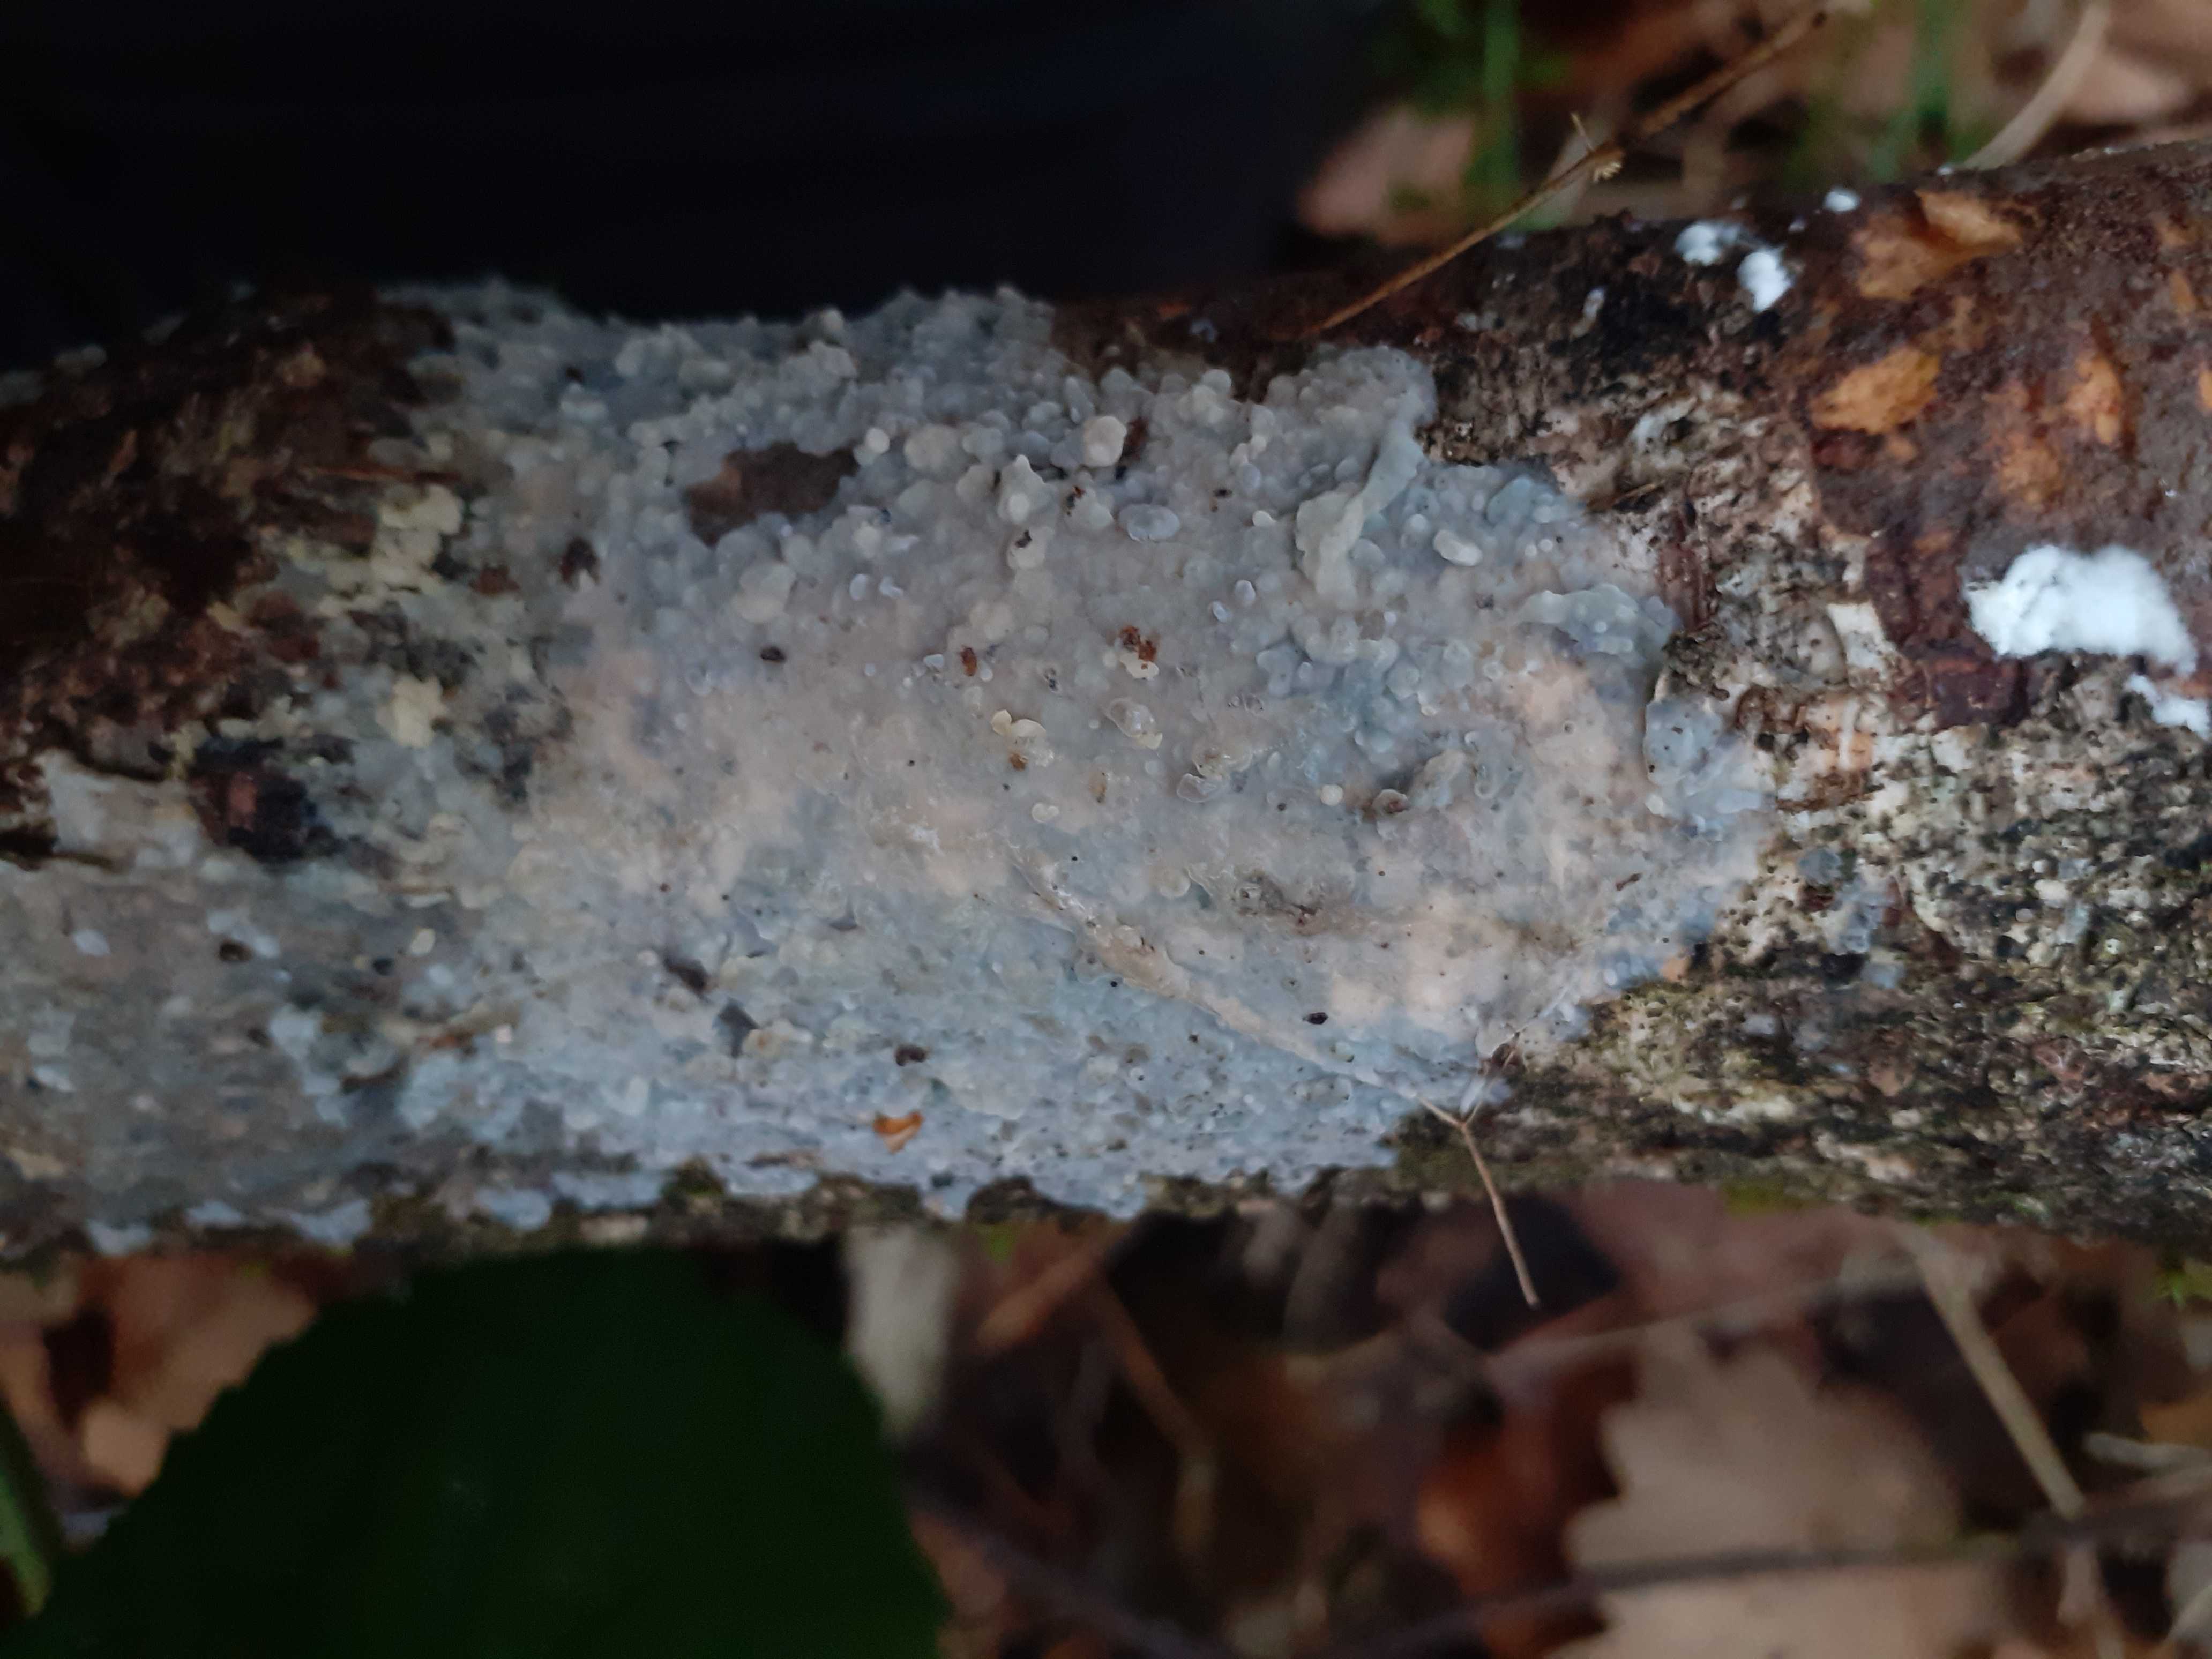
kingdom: Fungi
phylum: Basidiomycota
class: Agaricomycetes
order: Agaricales
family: Radulomycetaceae
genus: Radulomyces
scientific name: Radulomyces confluens
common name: glat naftalinskind
